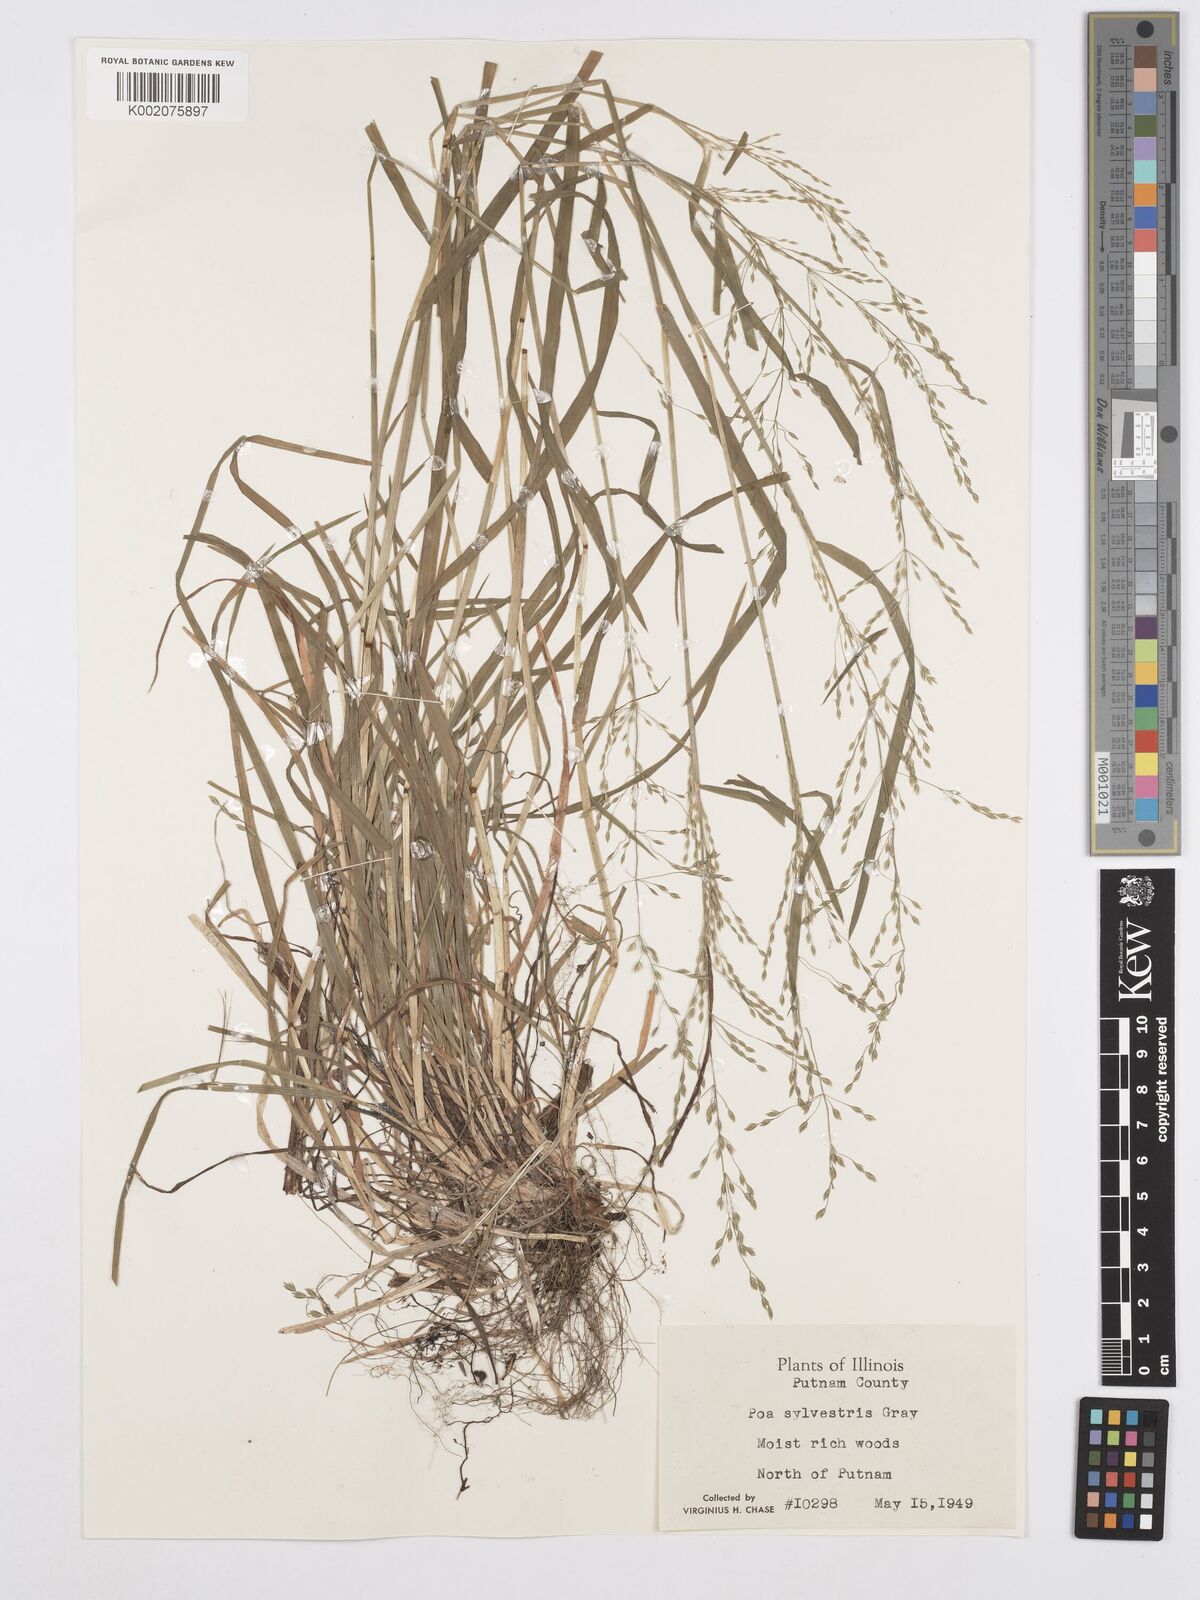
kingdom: Plantae
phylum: Tracheophyta
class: Liliopsida
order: Poales
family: Poaceae
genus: Poa
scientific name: Poa sylvestris
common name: North american woodland bluegrass
